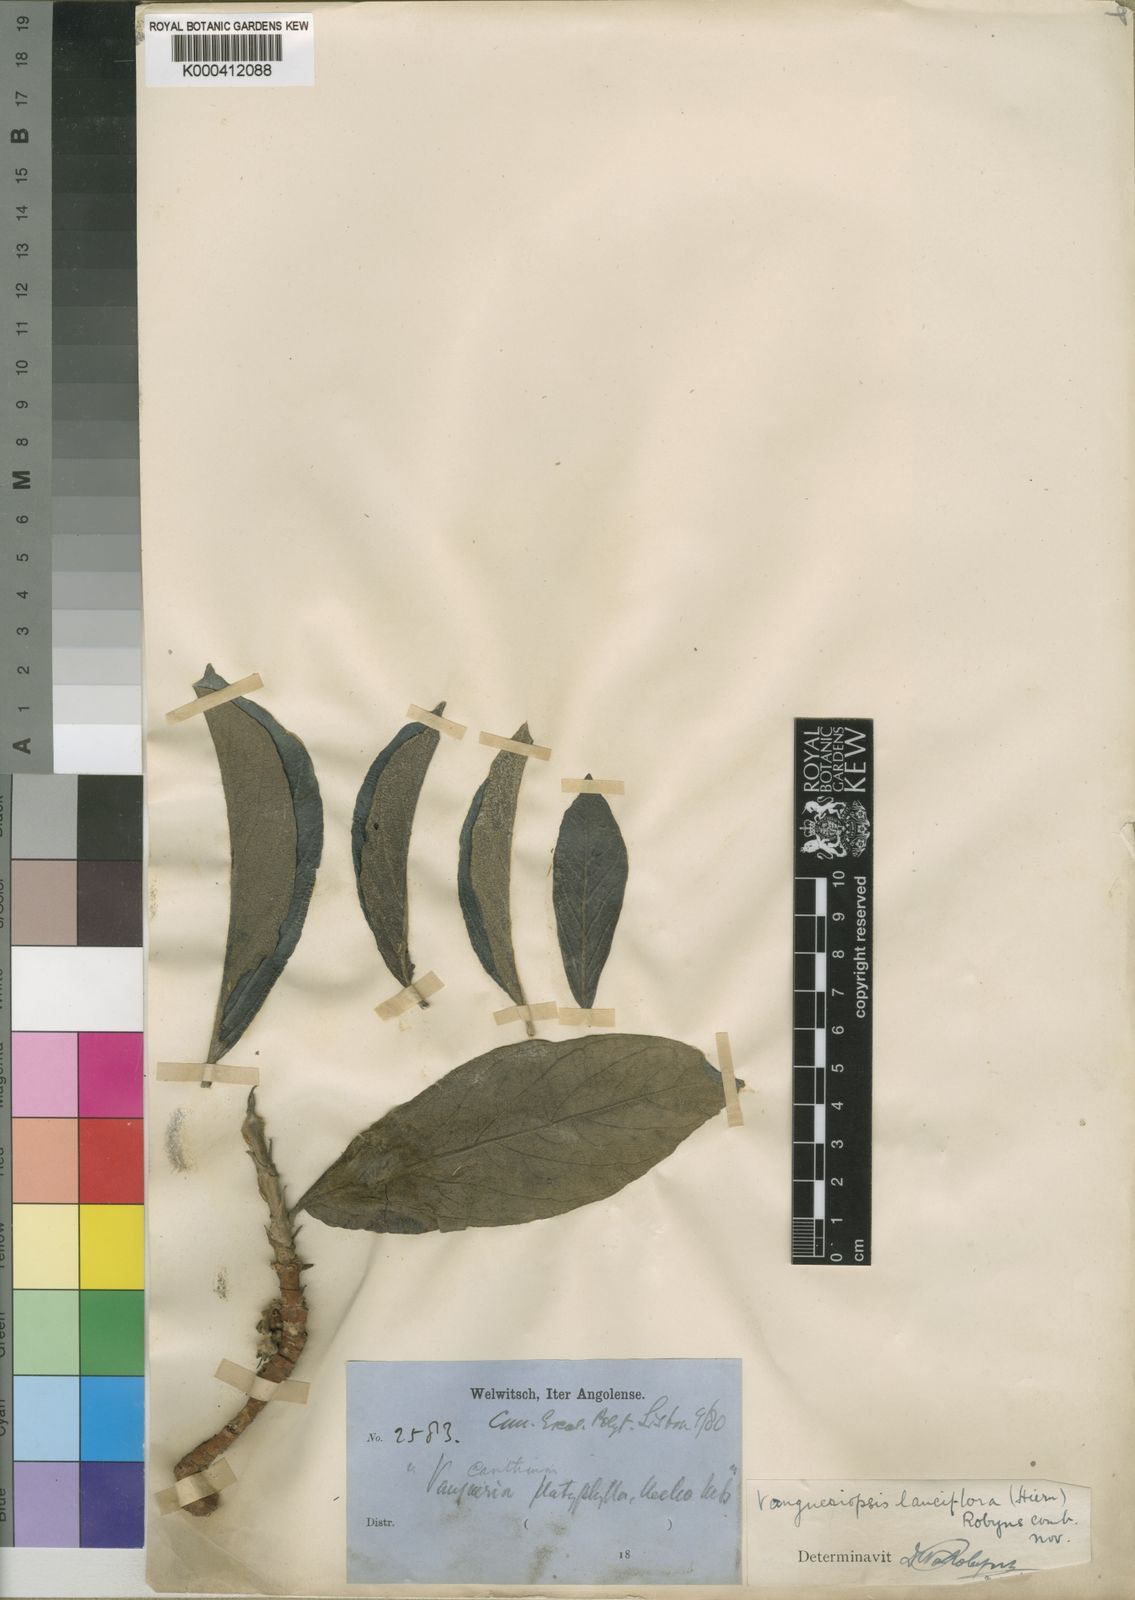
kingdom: Plantae
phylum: Tracheophyta
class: Magnoliopsida
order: Gentianales
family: Rubiaceae
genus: Vangueriopsis
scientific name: Vangueriopsis lanciflora
